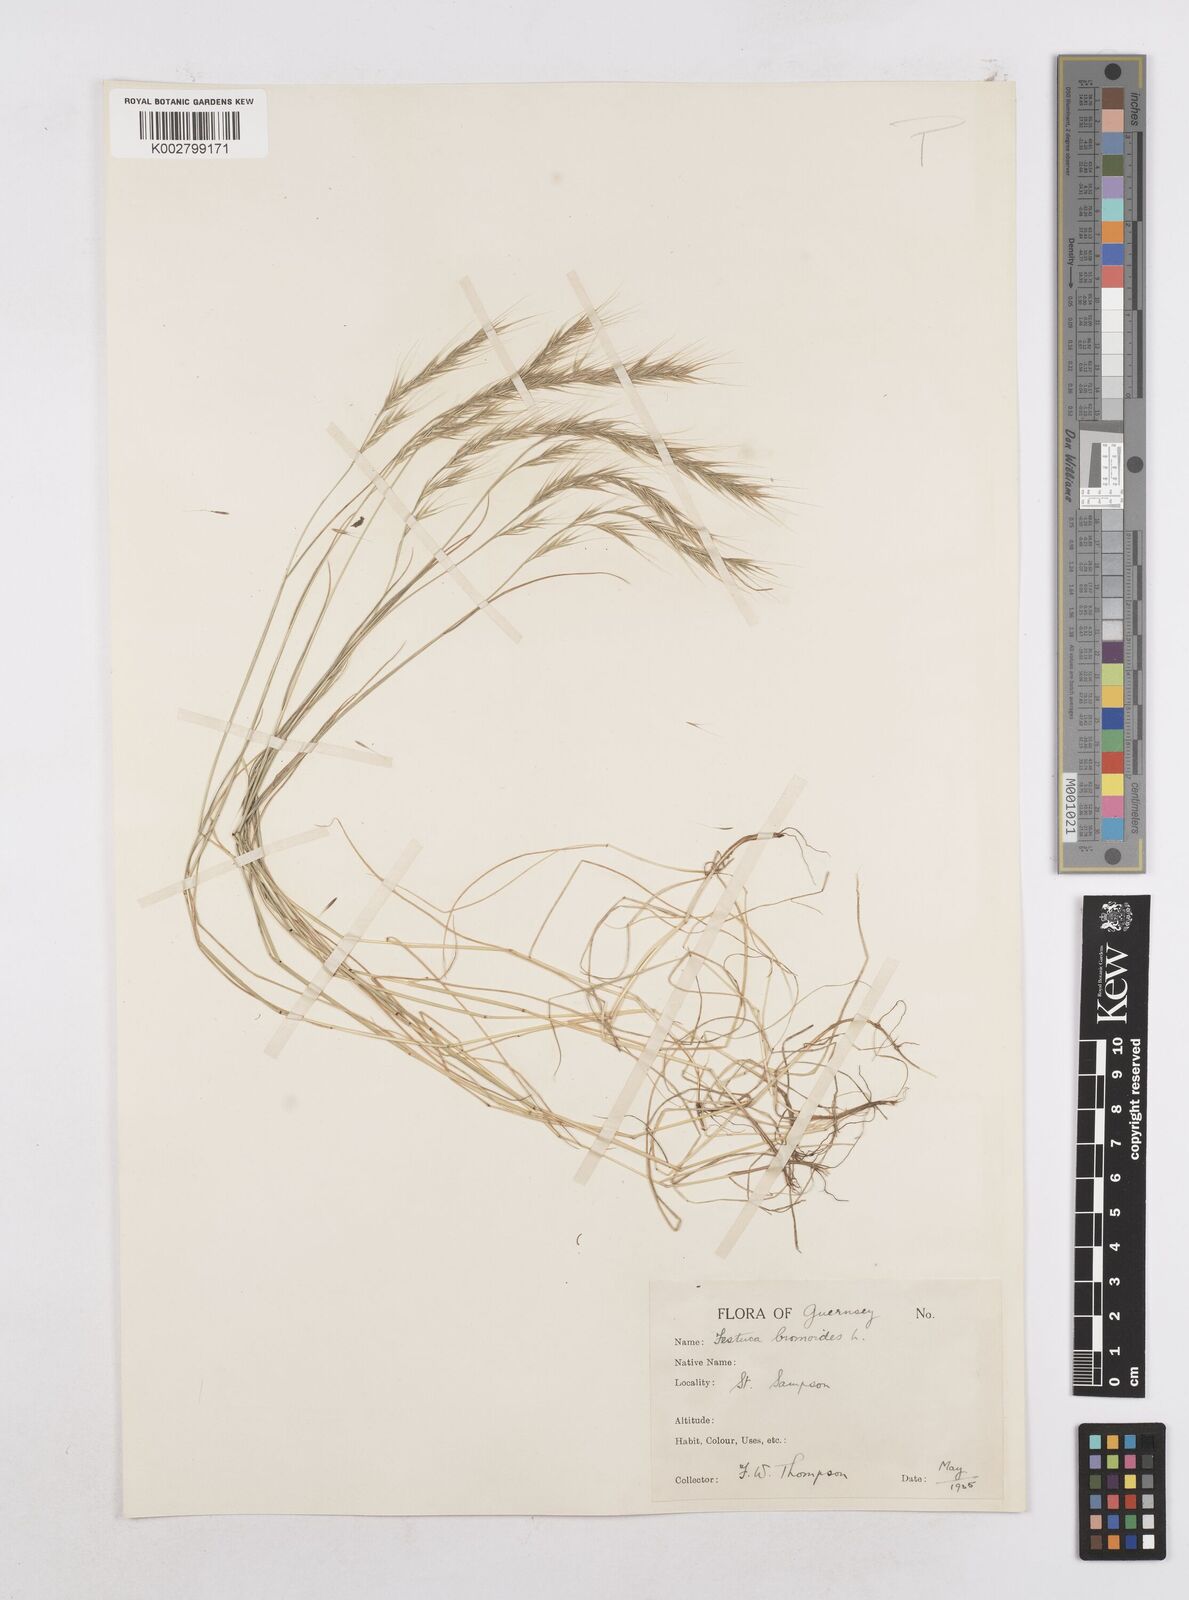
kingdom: Plantae
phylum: Tracheophyta
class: Liliopsida
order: Poales
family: Poaceae
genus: Festuca
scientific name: Festuca bromoides
